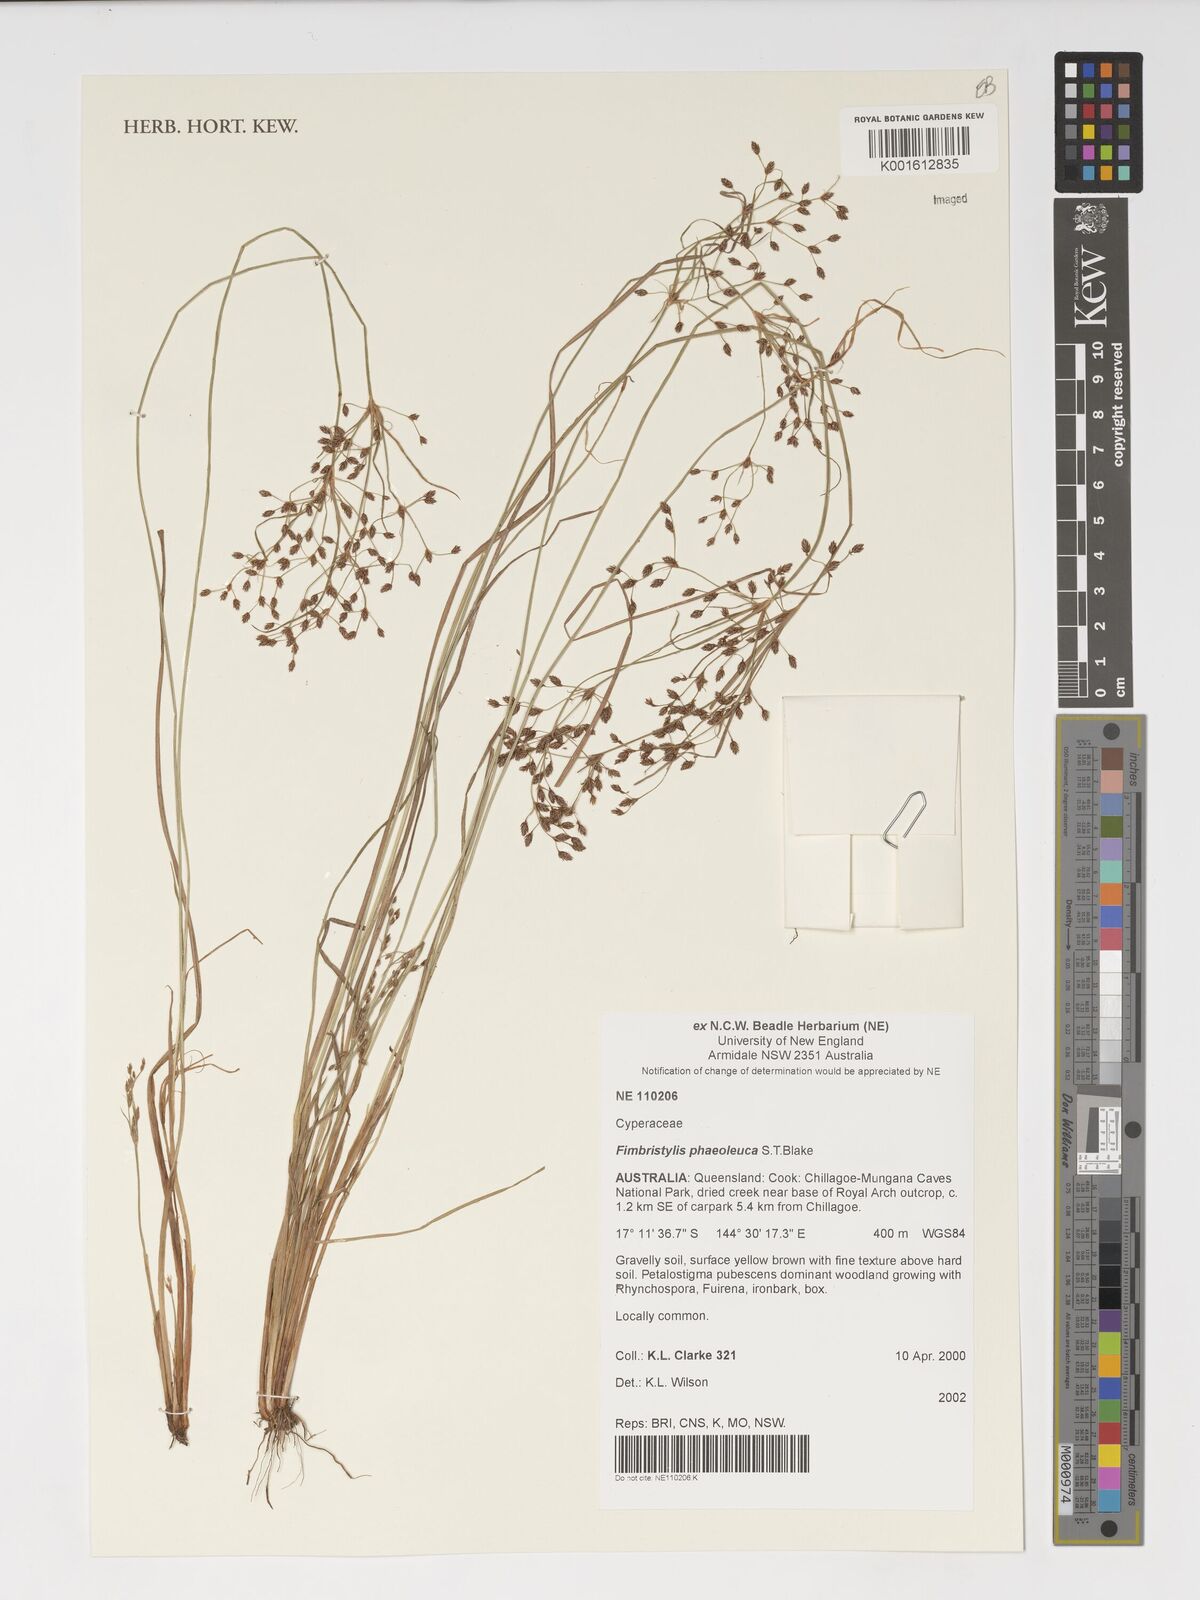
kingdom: Plantae
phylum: Tracheophyta
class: Liliopsida
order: Poales
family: Cyperaceae
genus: Fimbristylis
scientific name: Fimbristylis phaeoleuca
